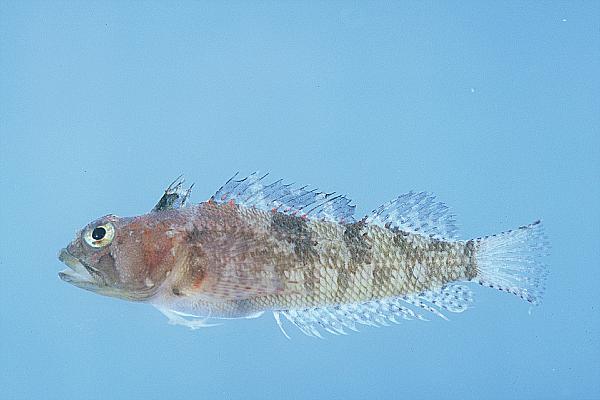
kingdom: Animalia
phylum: Chordata
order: Perciformes
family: Tripterygiidae
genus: Cremnochorites
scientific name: Cremnochorites capensis
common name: Cape triplefin
